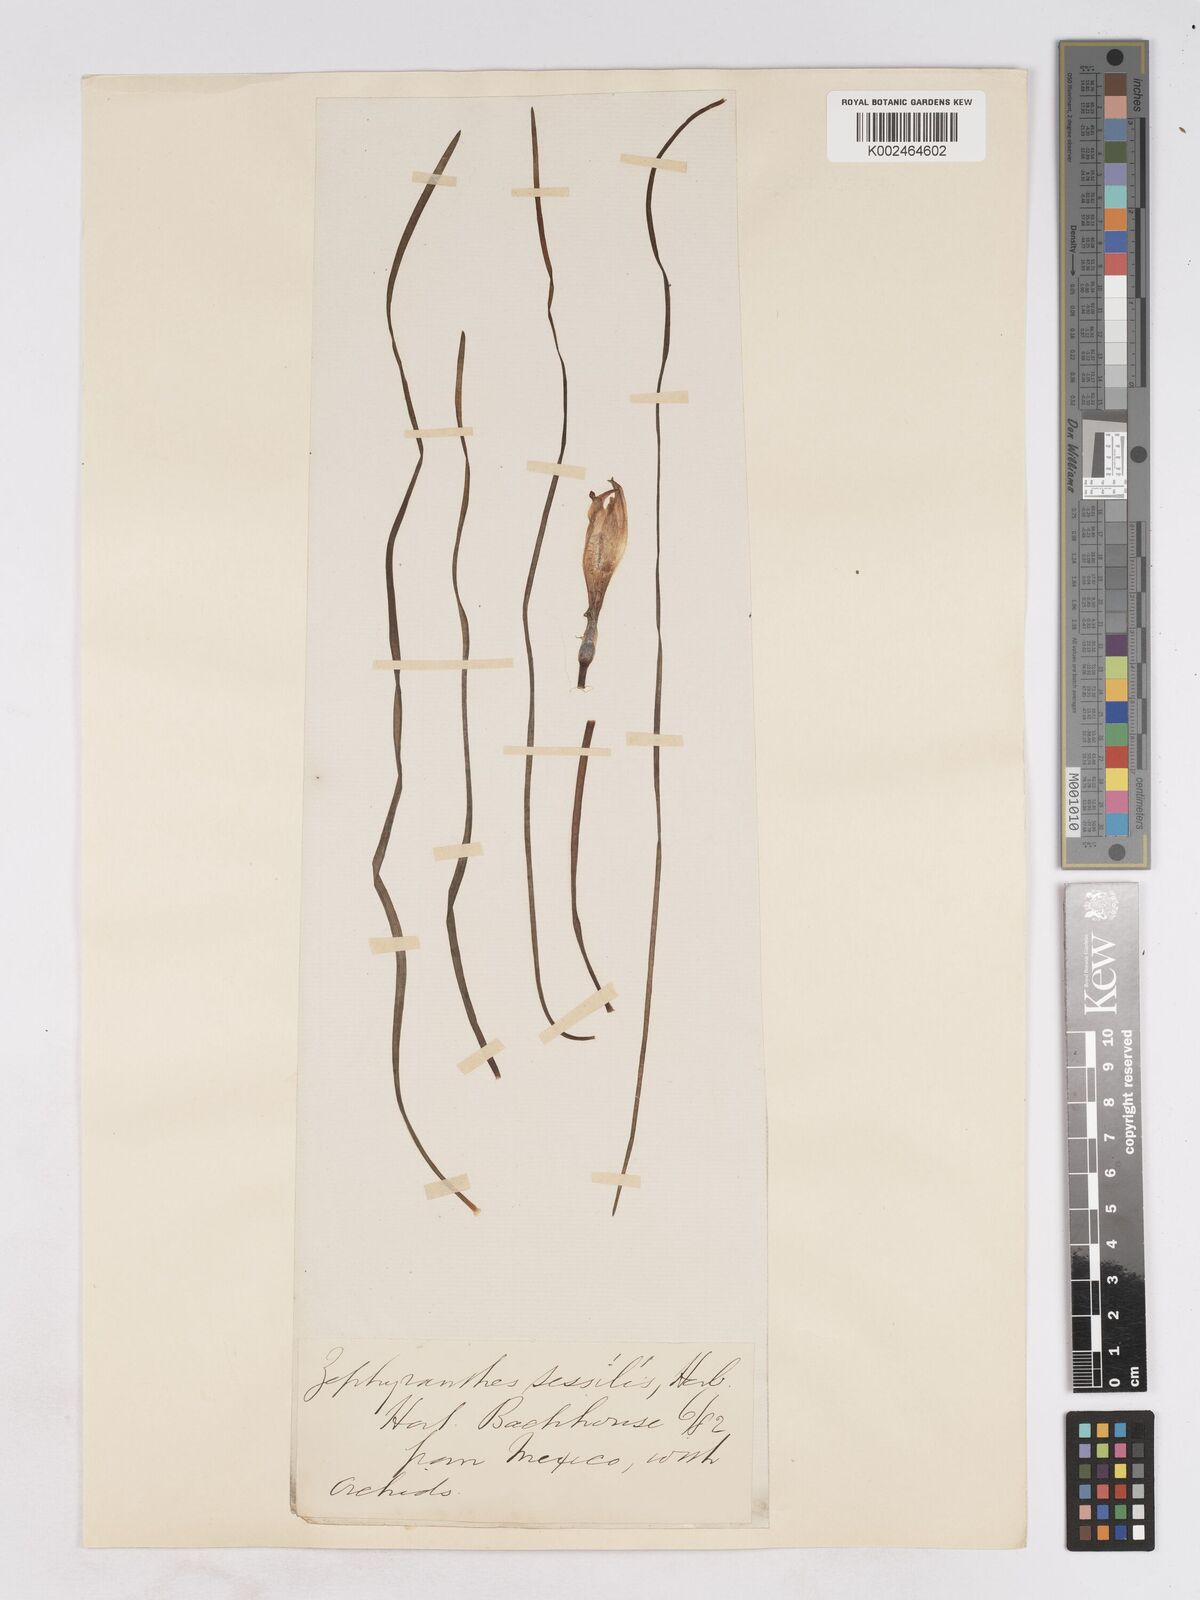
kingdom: Plantae
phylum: Tracheophyta
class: Liliopsida
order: Asparagales
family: Amaryllidaceae
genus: Zephyranthes
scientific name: Zephyranthes minuta
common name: Pink rain lily
